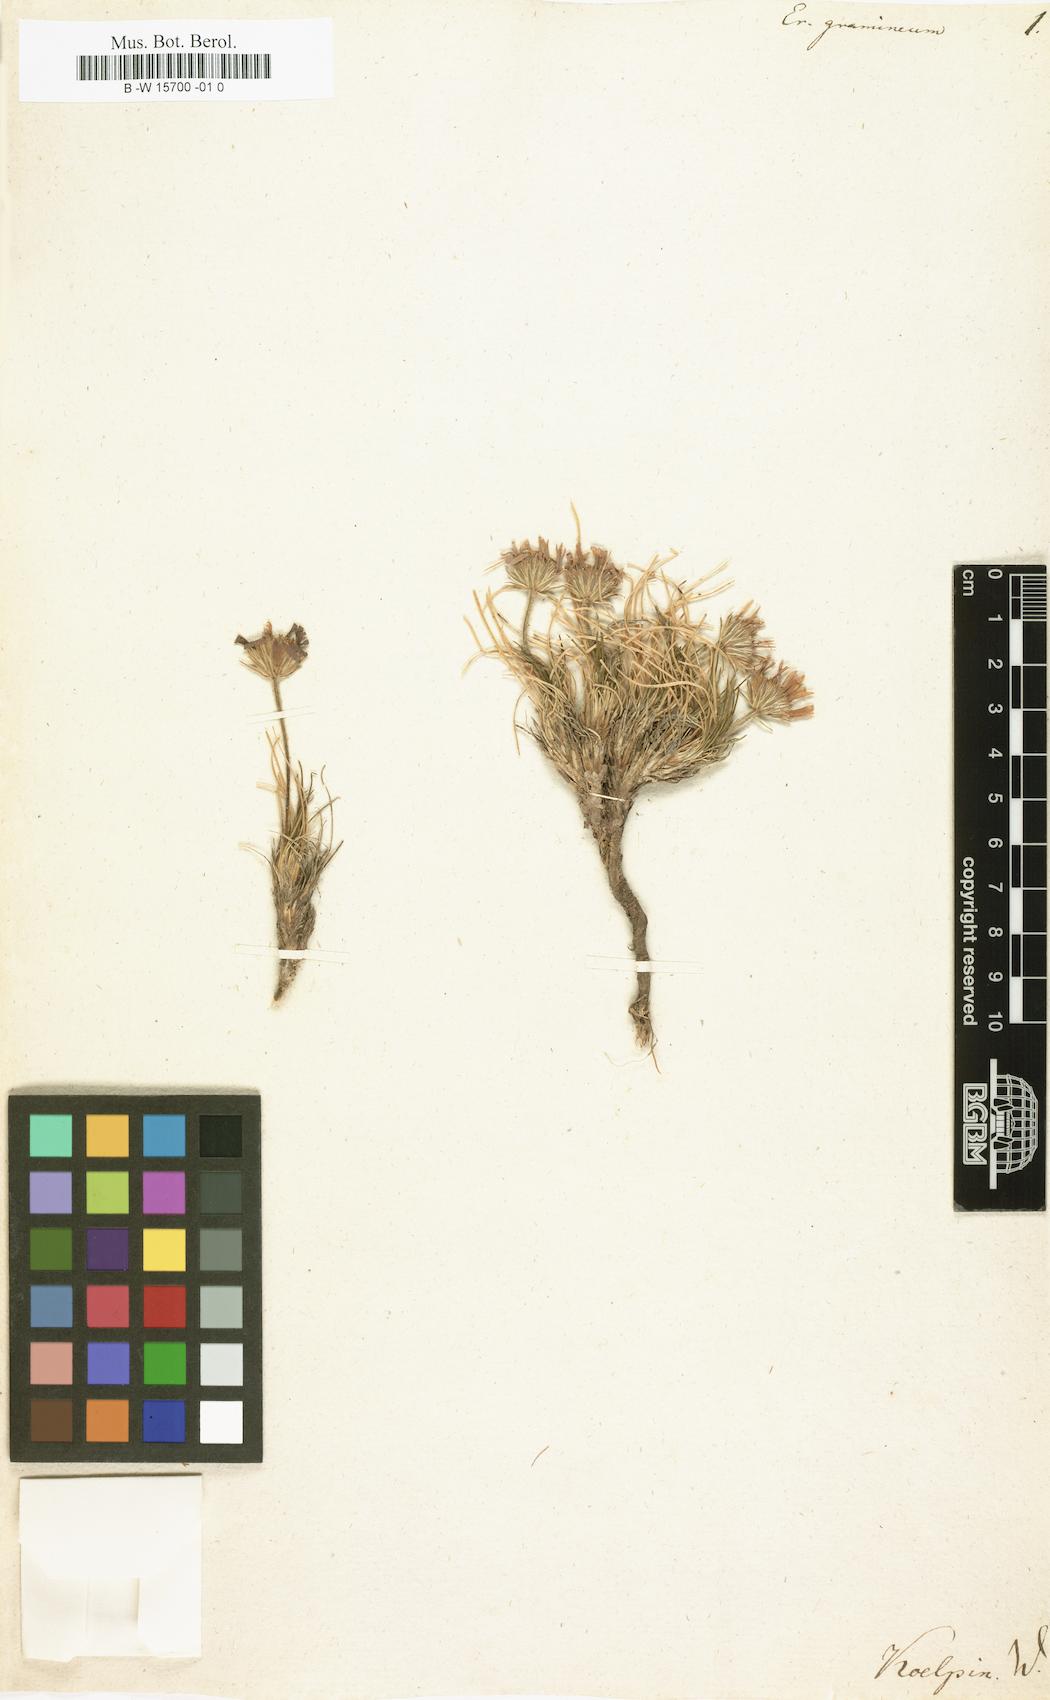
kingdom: Plantae
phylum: Tracheophyta
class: Magnoliopsida
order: Asterales
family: Asteraceae
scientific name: Asteraceae
